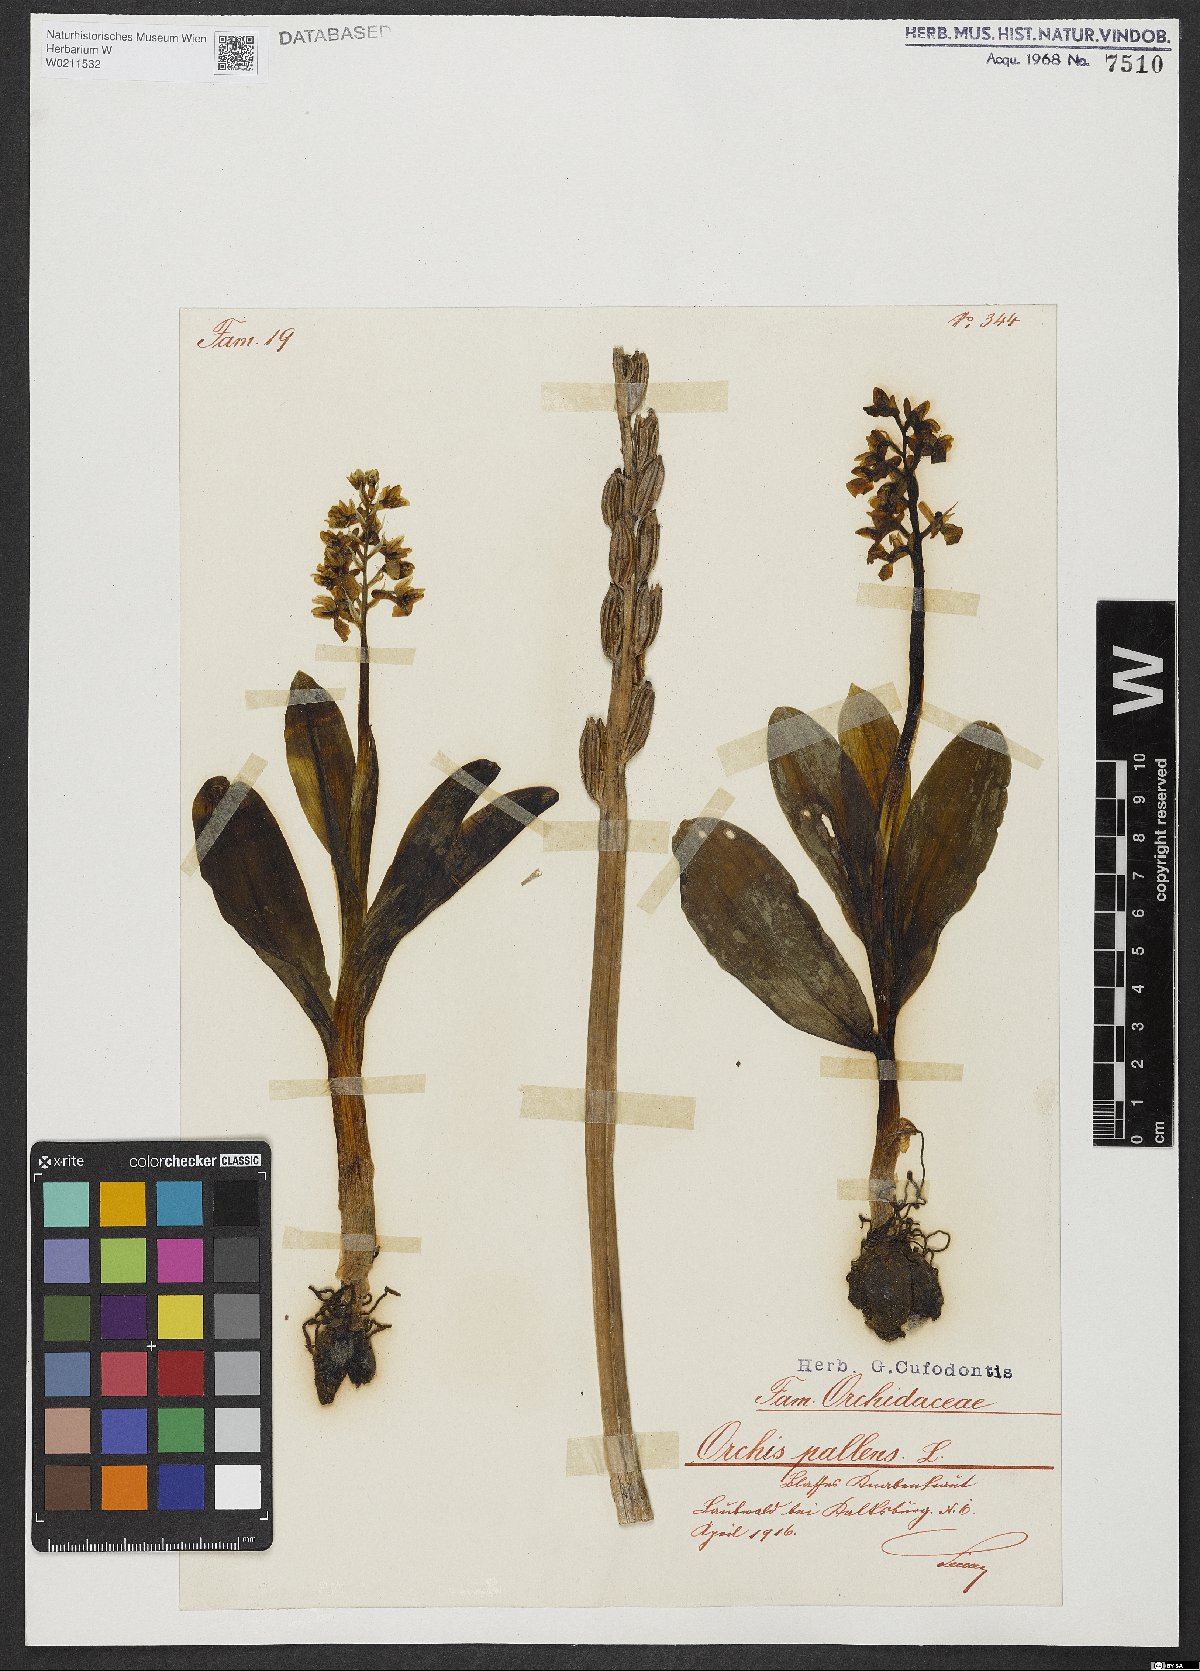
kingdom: Plantae
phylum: Tracheophyta
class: Liliopsida
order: Asparagales
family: Orchidaceae
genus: Orchis
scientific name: Orchis pallens
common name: Pale-flowered orchid
